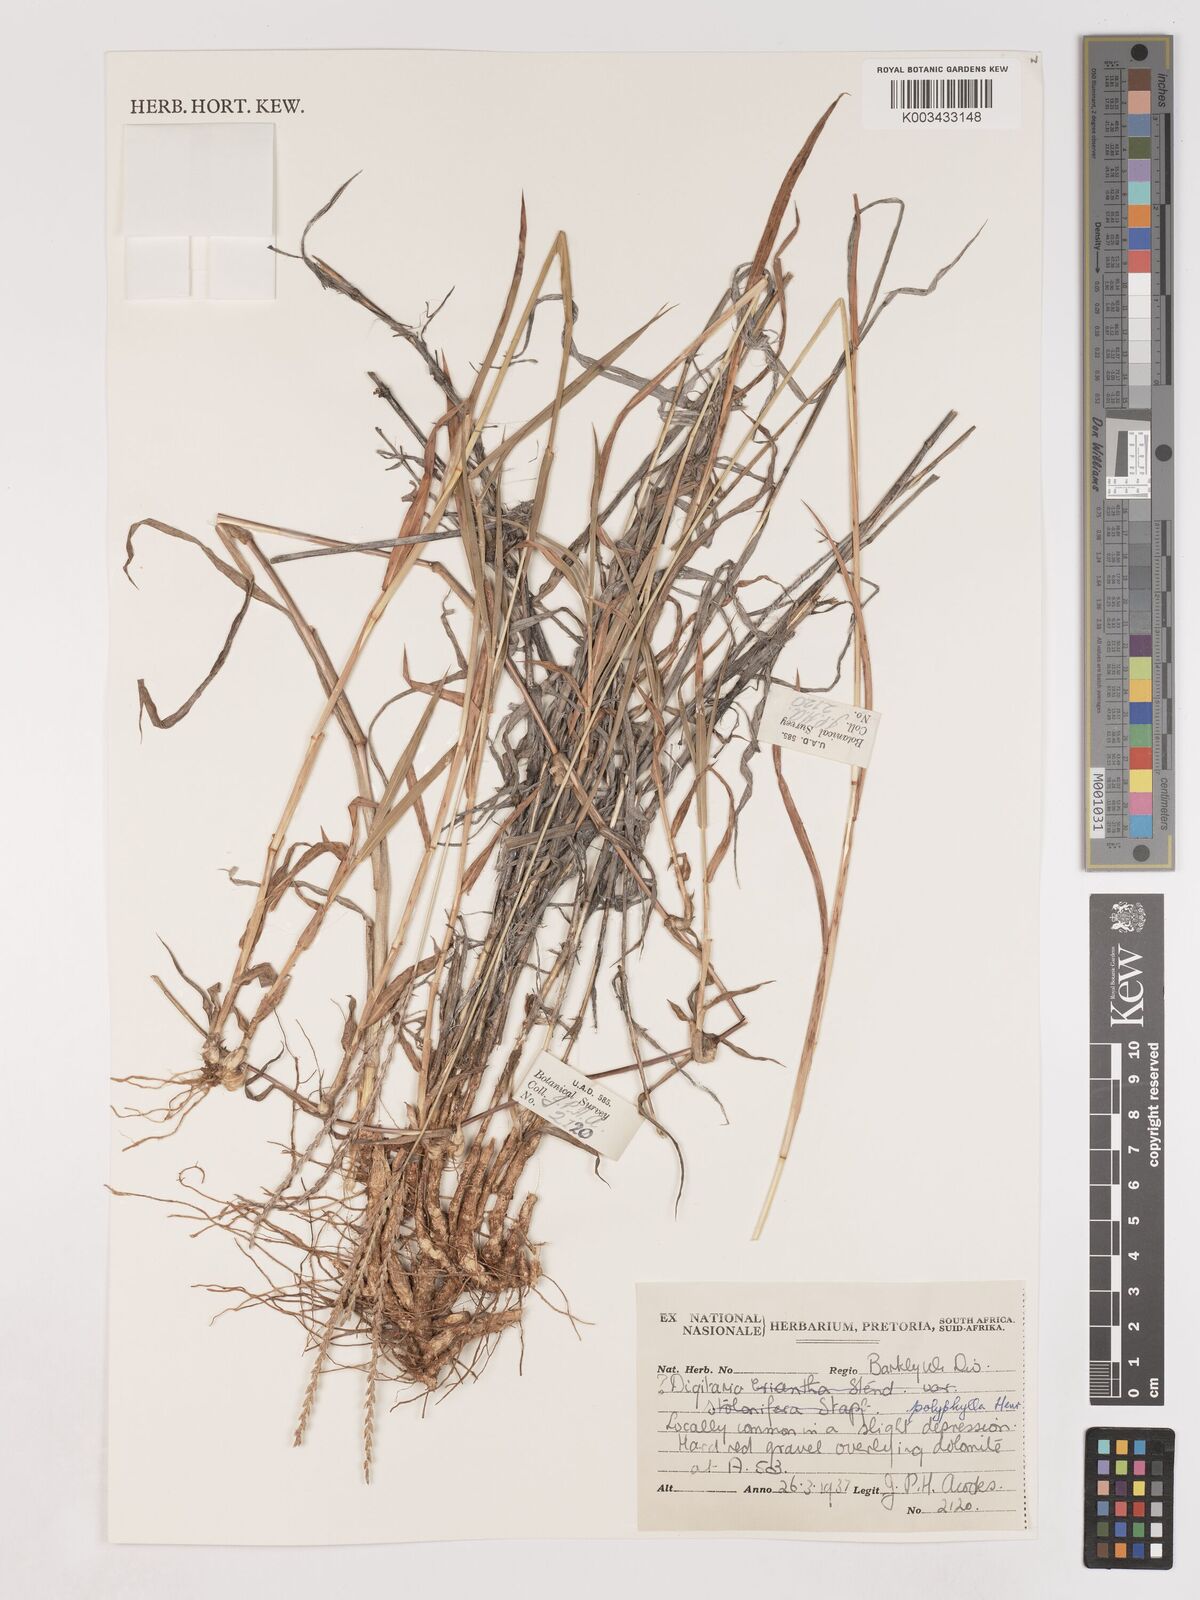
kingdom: Plantae
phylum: Tracheophyta
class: Liliopsida
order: Poales
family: Poaceae
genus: Digitaria
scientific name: Digitaria polyphylla
